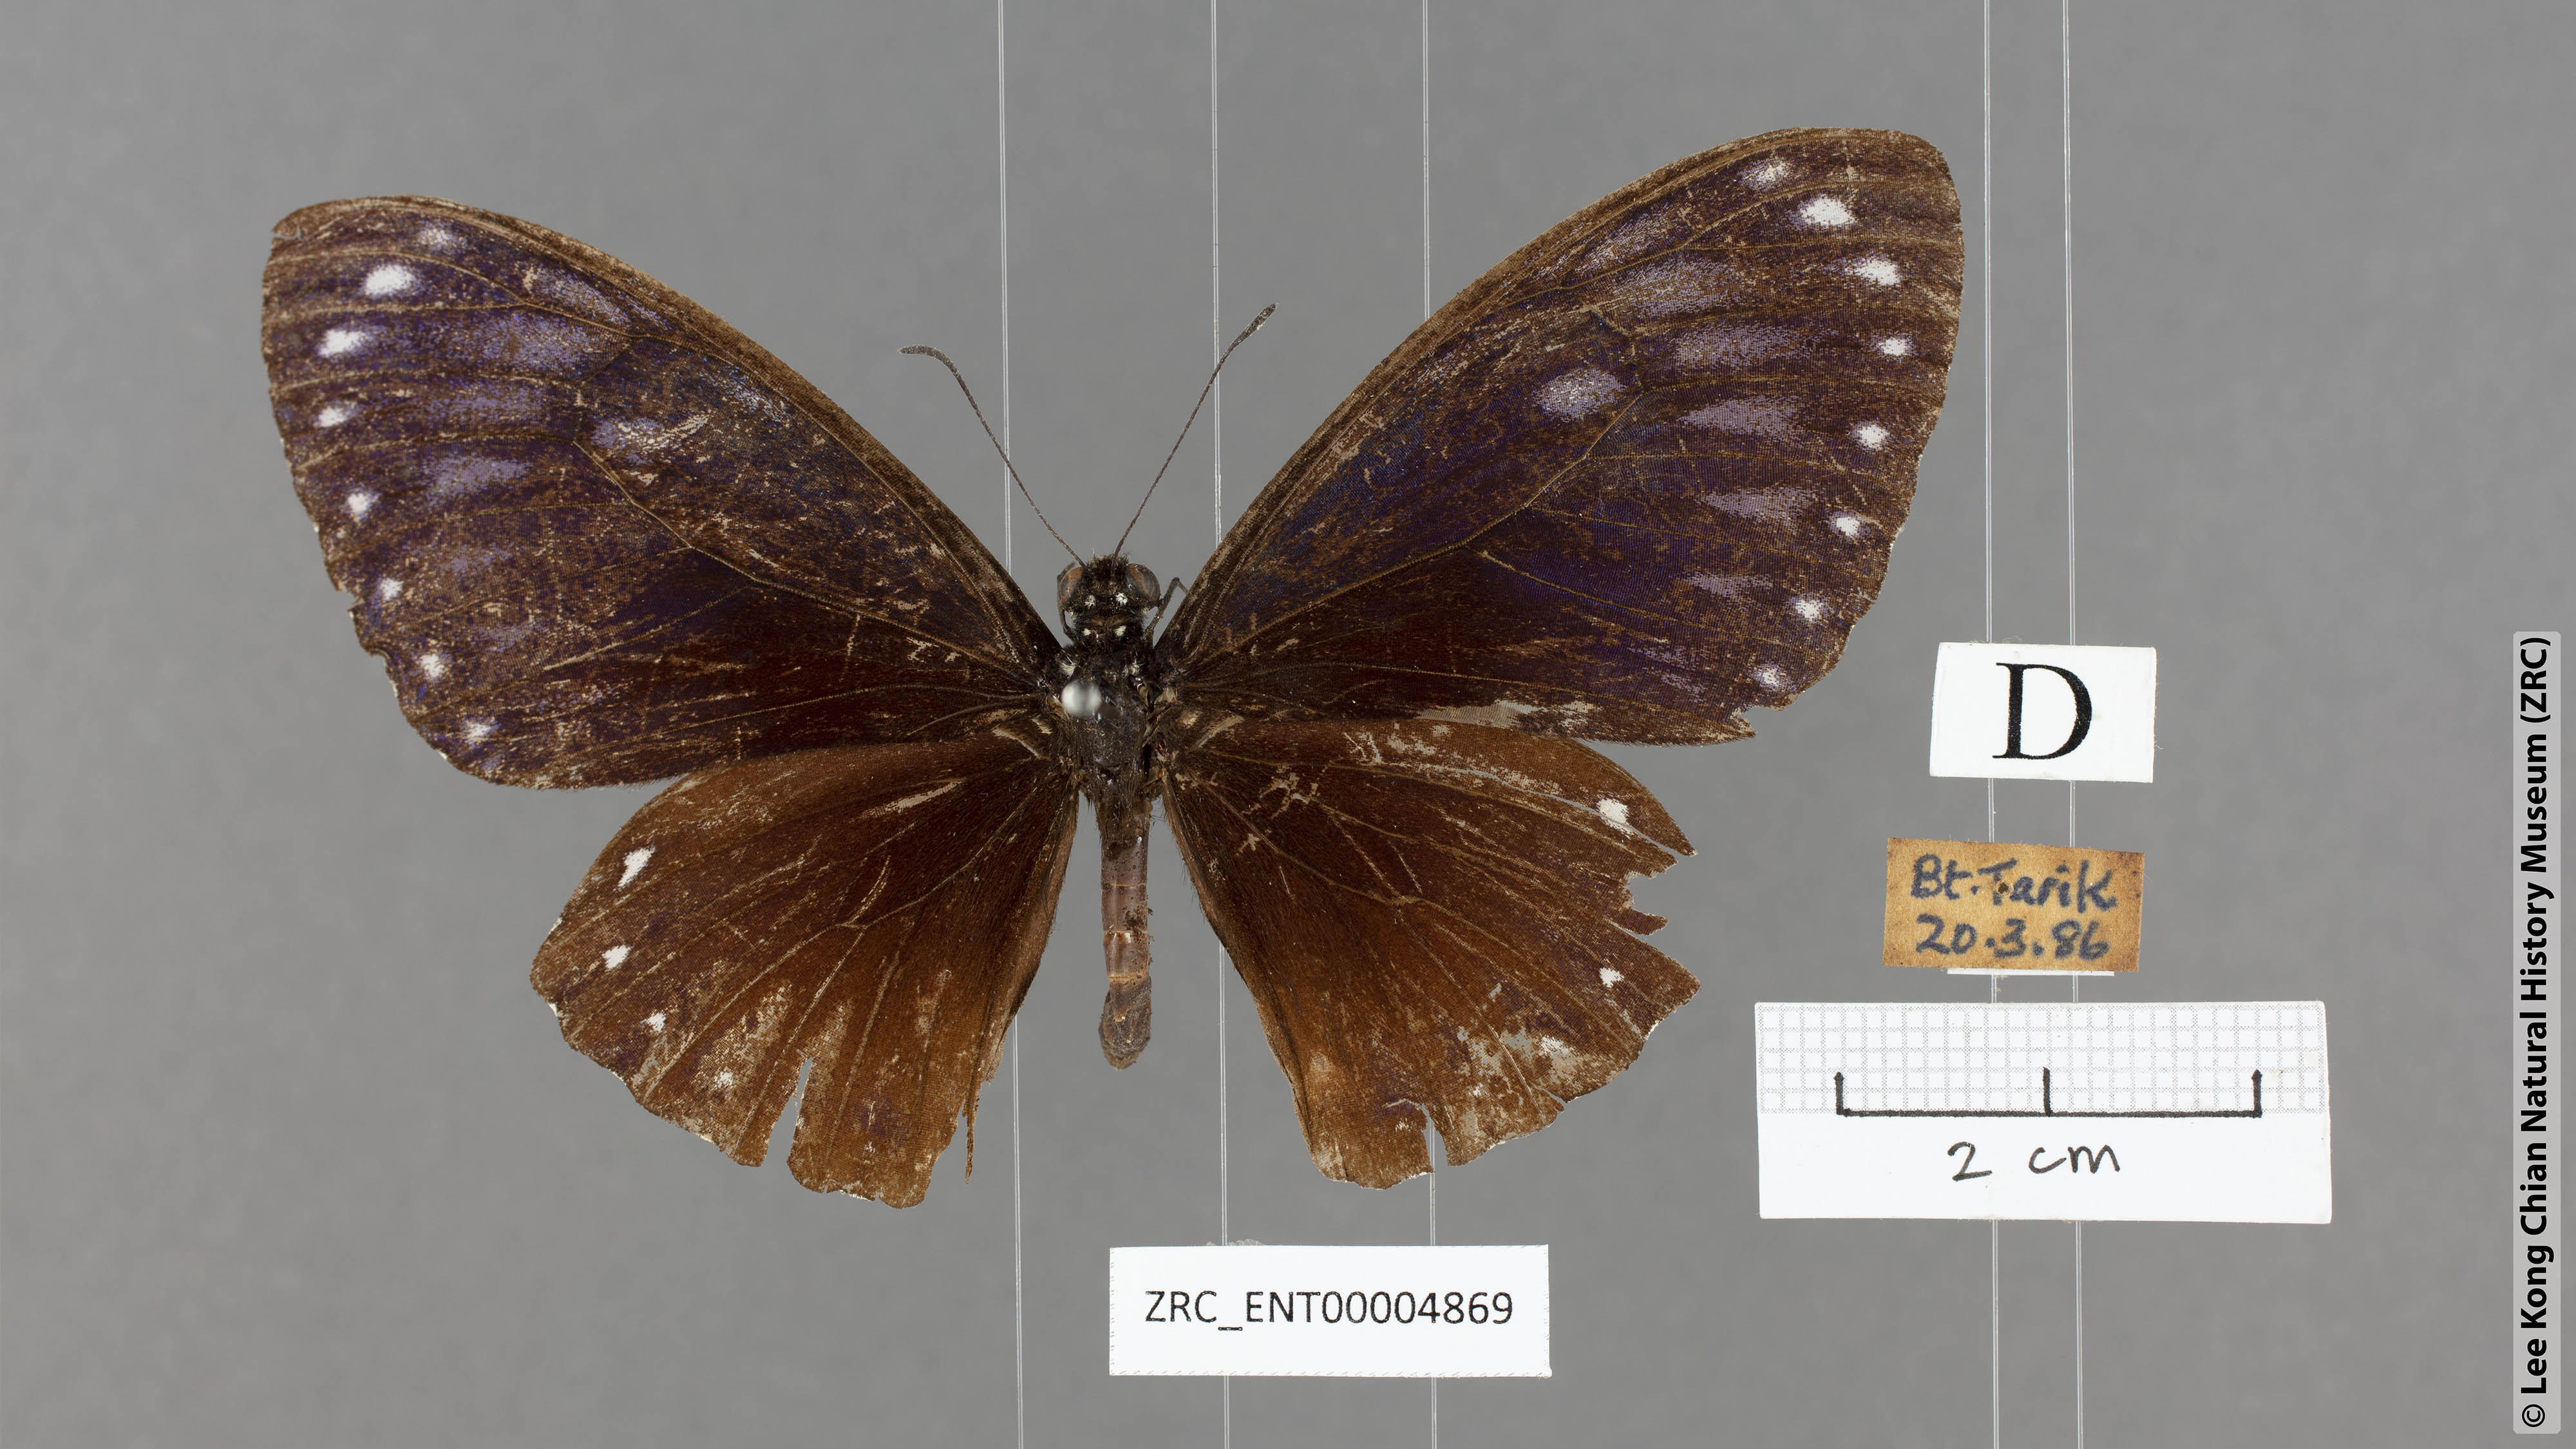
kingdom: Animalia
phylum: Arthropoda
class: Insecta
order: Lepidoptera
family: Papilionidae
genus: Chilasa
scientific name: Chilasa paradoxa
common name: Great mime
